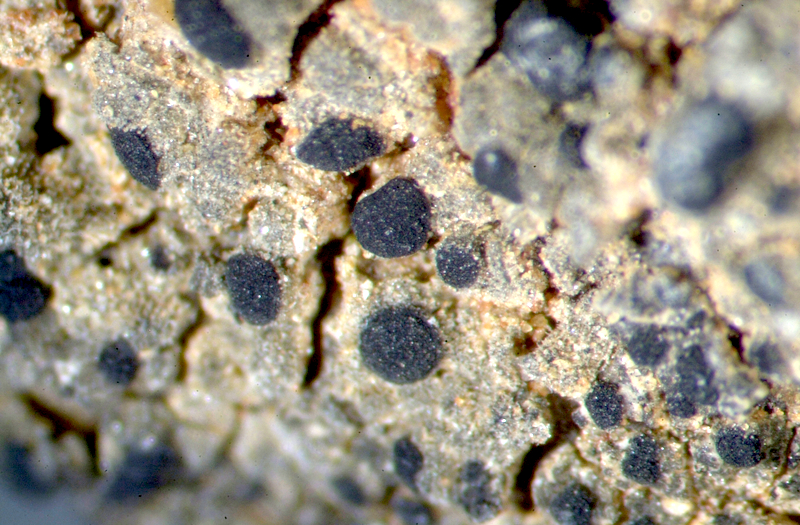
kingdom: Fungi
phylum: Ascomycota
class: Lecanoromycetes
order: Caliciales
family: Caliciaceae
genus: Amandinea
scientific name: Amandinea extenuata
